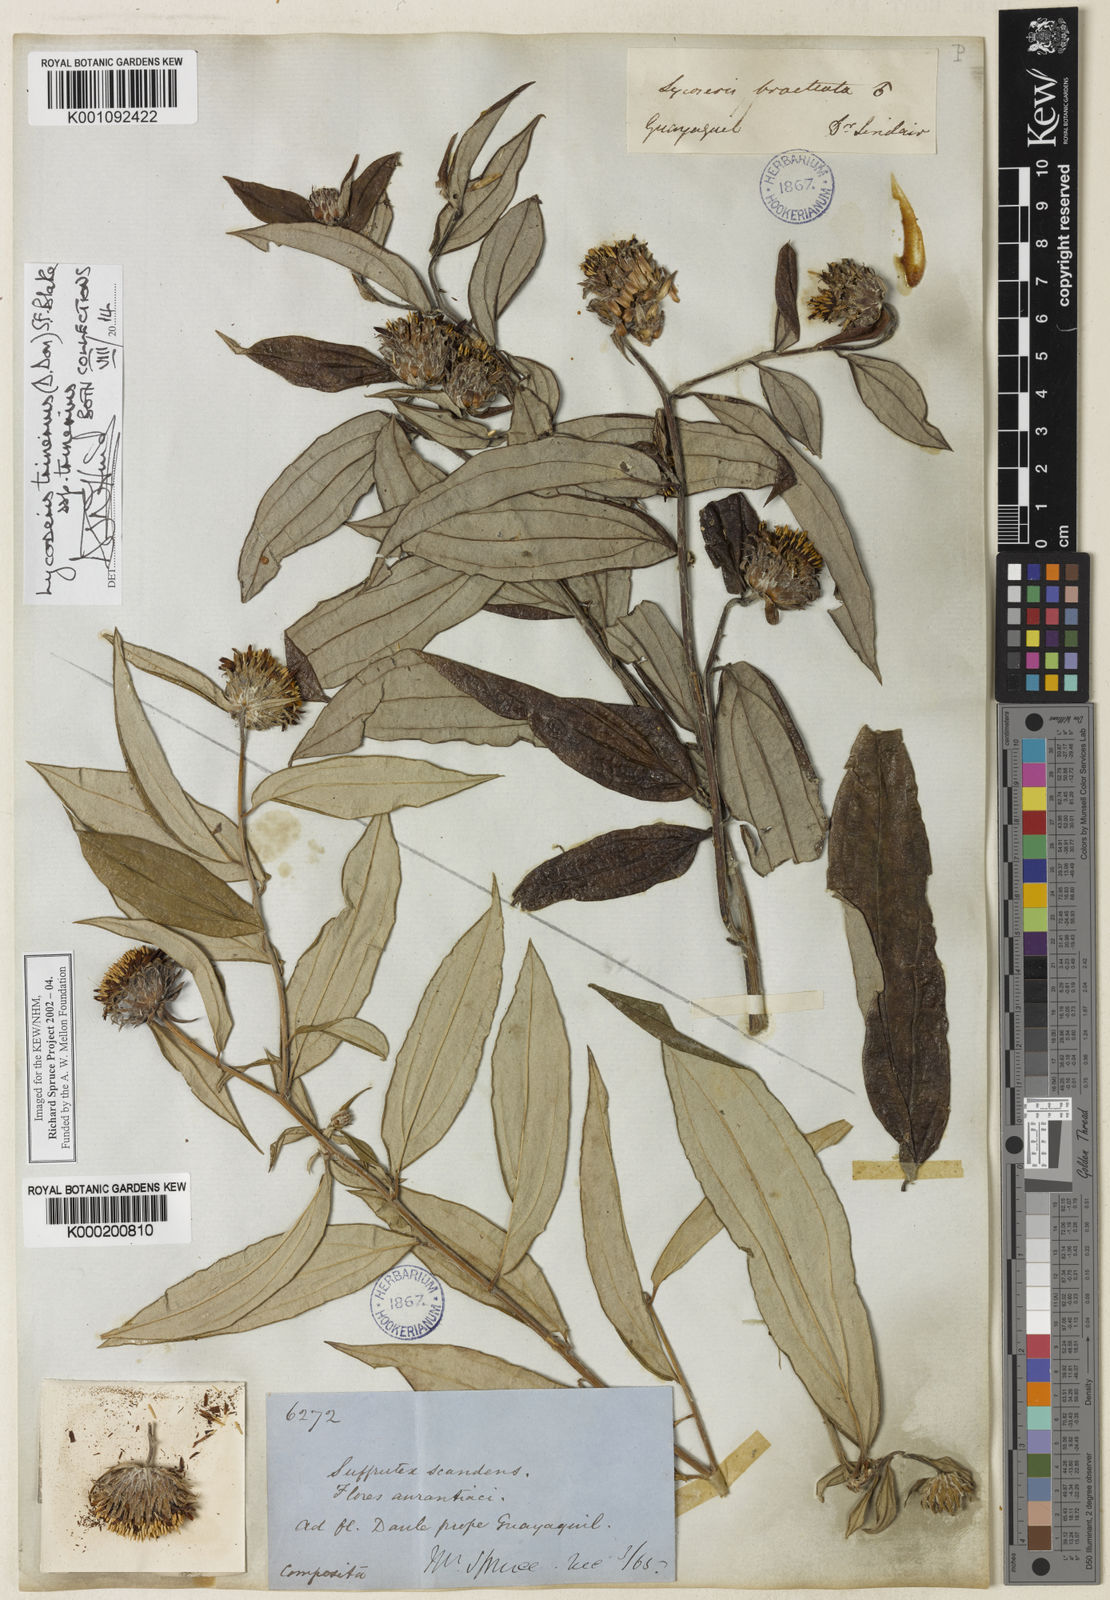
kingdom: Plantae
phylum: Tracheophyta
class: Magnoliopsida
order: Asterales
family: Asteraceae
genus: Lycoseris
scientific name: Lycoseris trinervis
